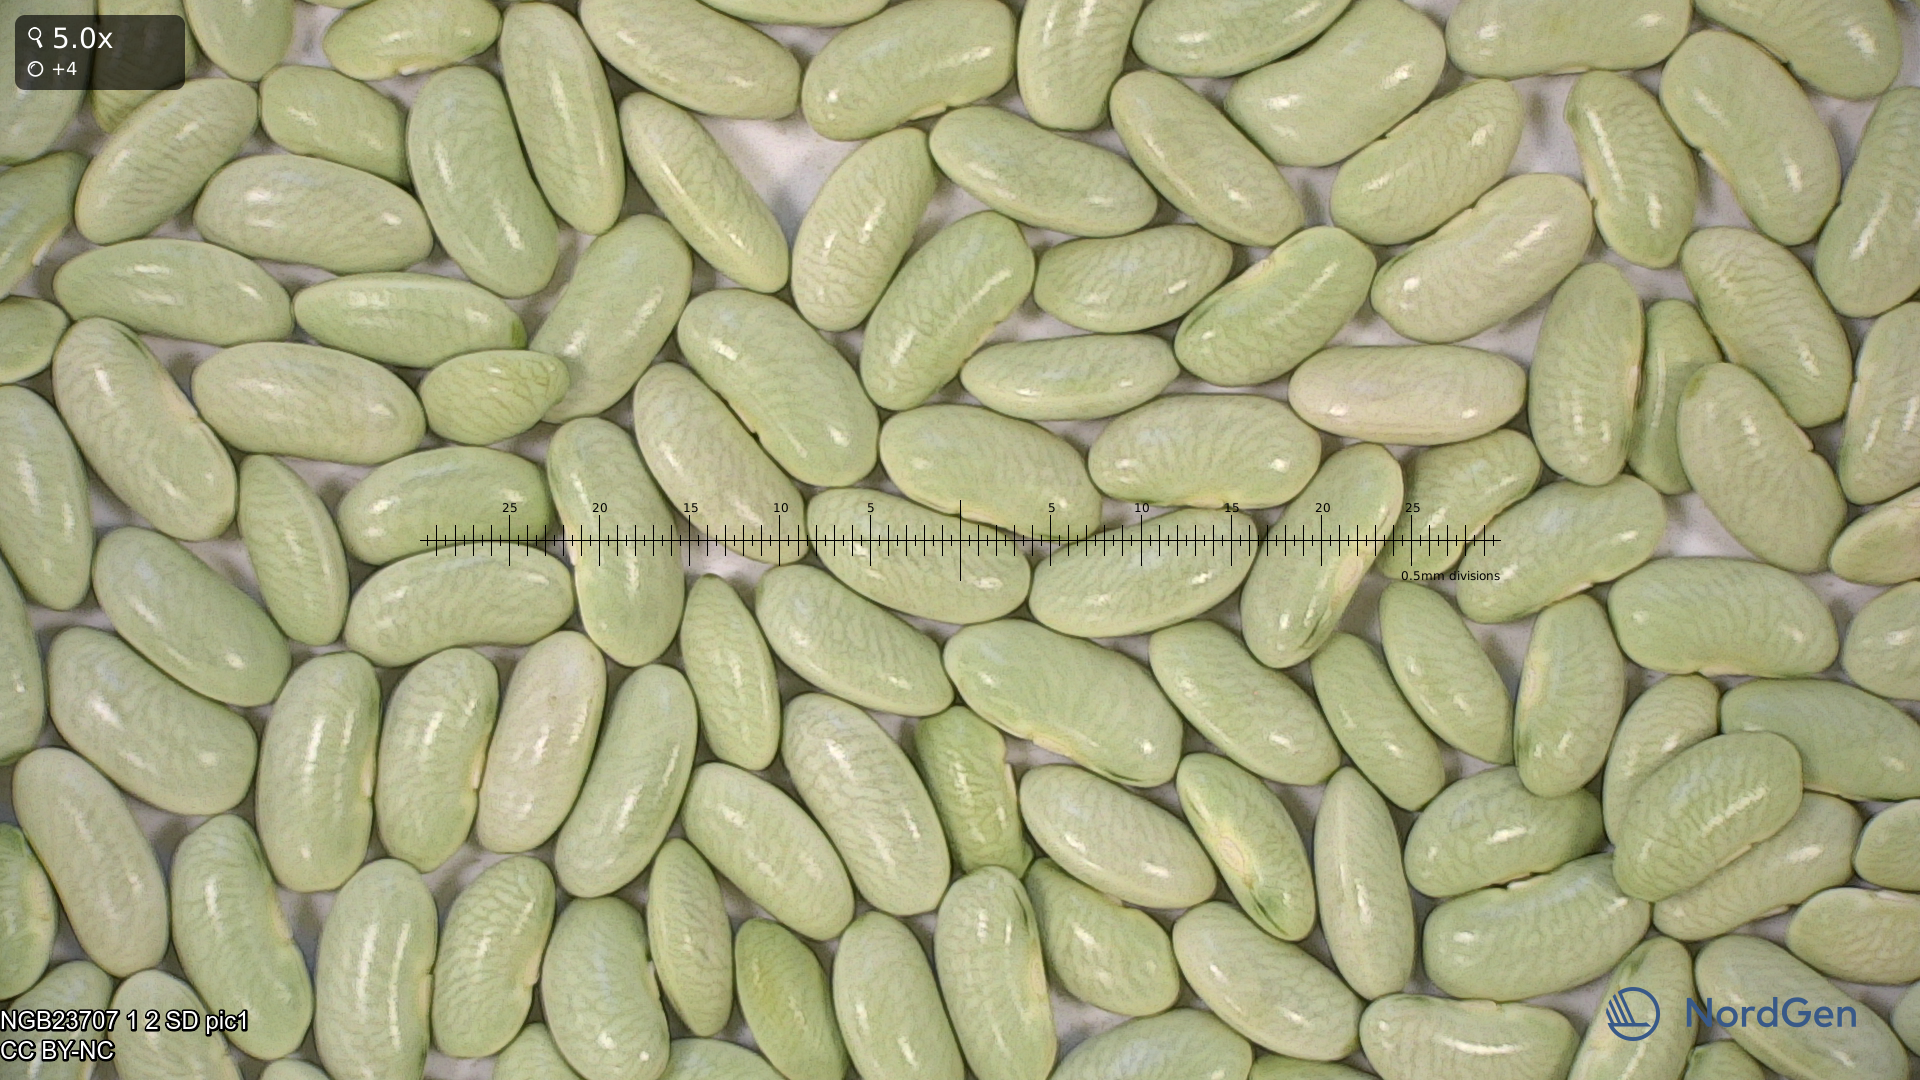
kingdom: Plantae
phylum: Tracheophyta
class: Magnoliopsida
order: Fabales
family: Fabaceae
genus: Phaseolus
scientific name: Phaseolus vulgaris
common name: Bean
